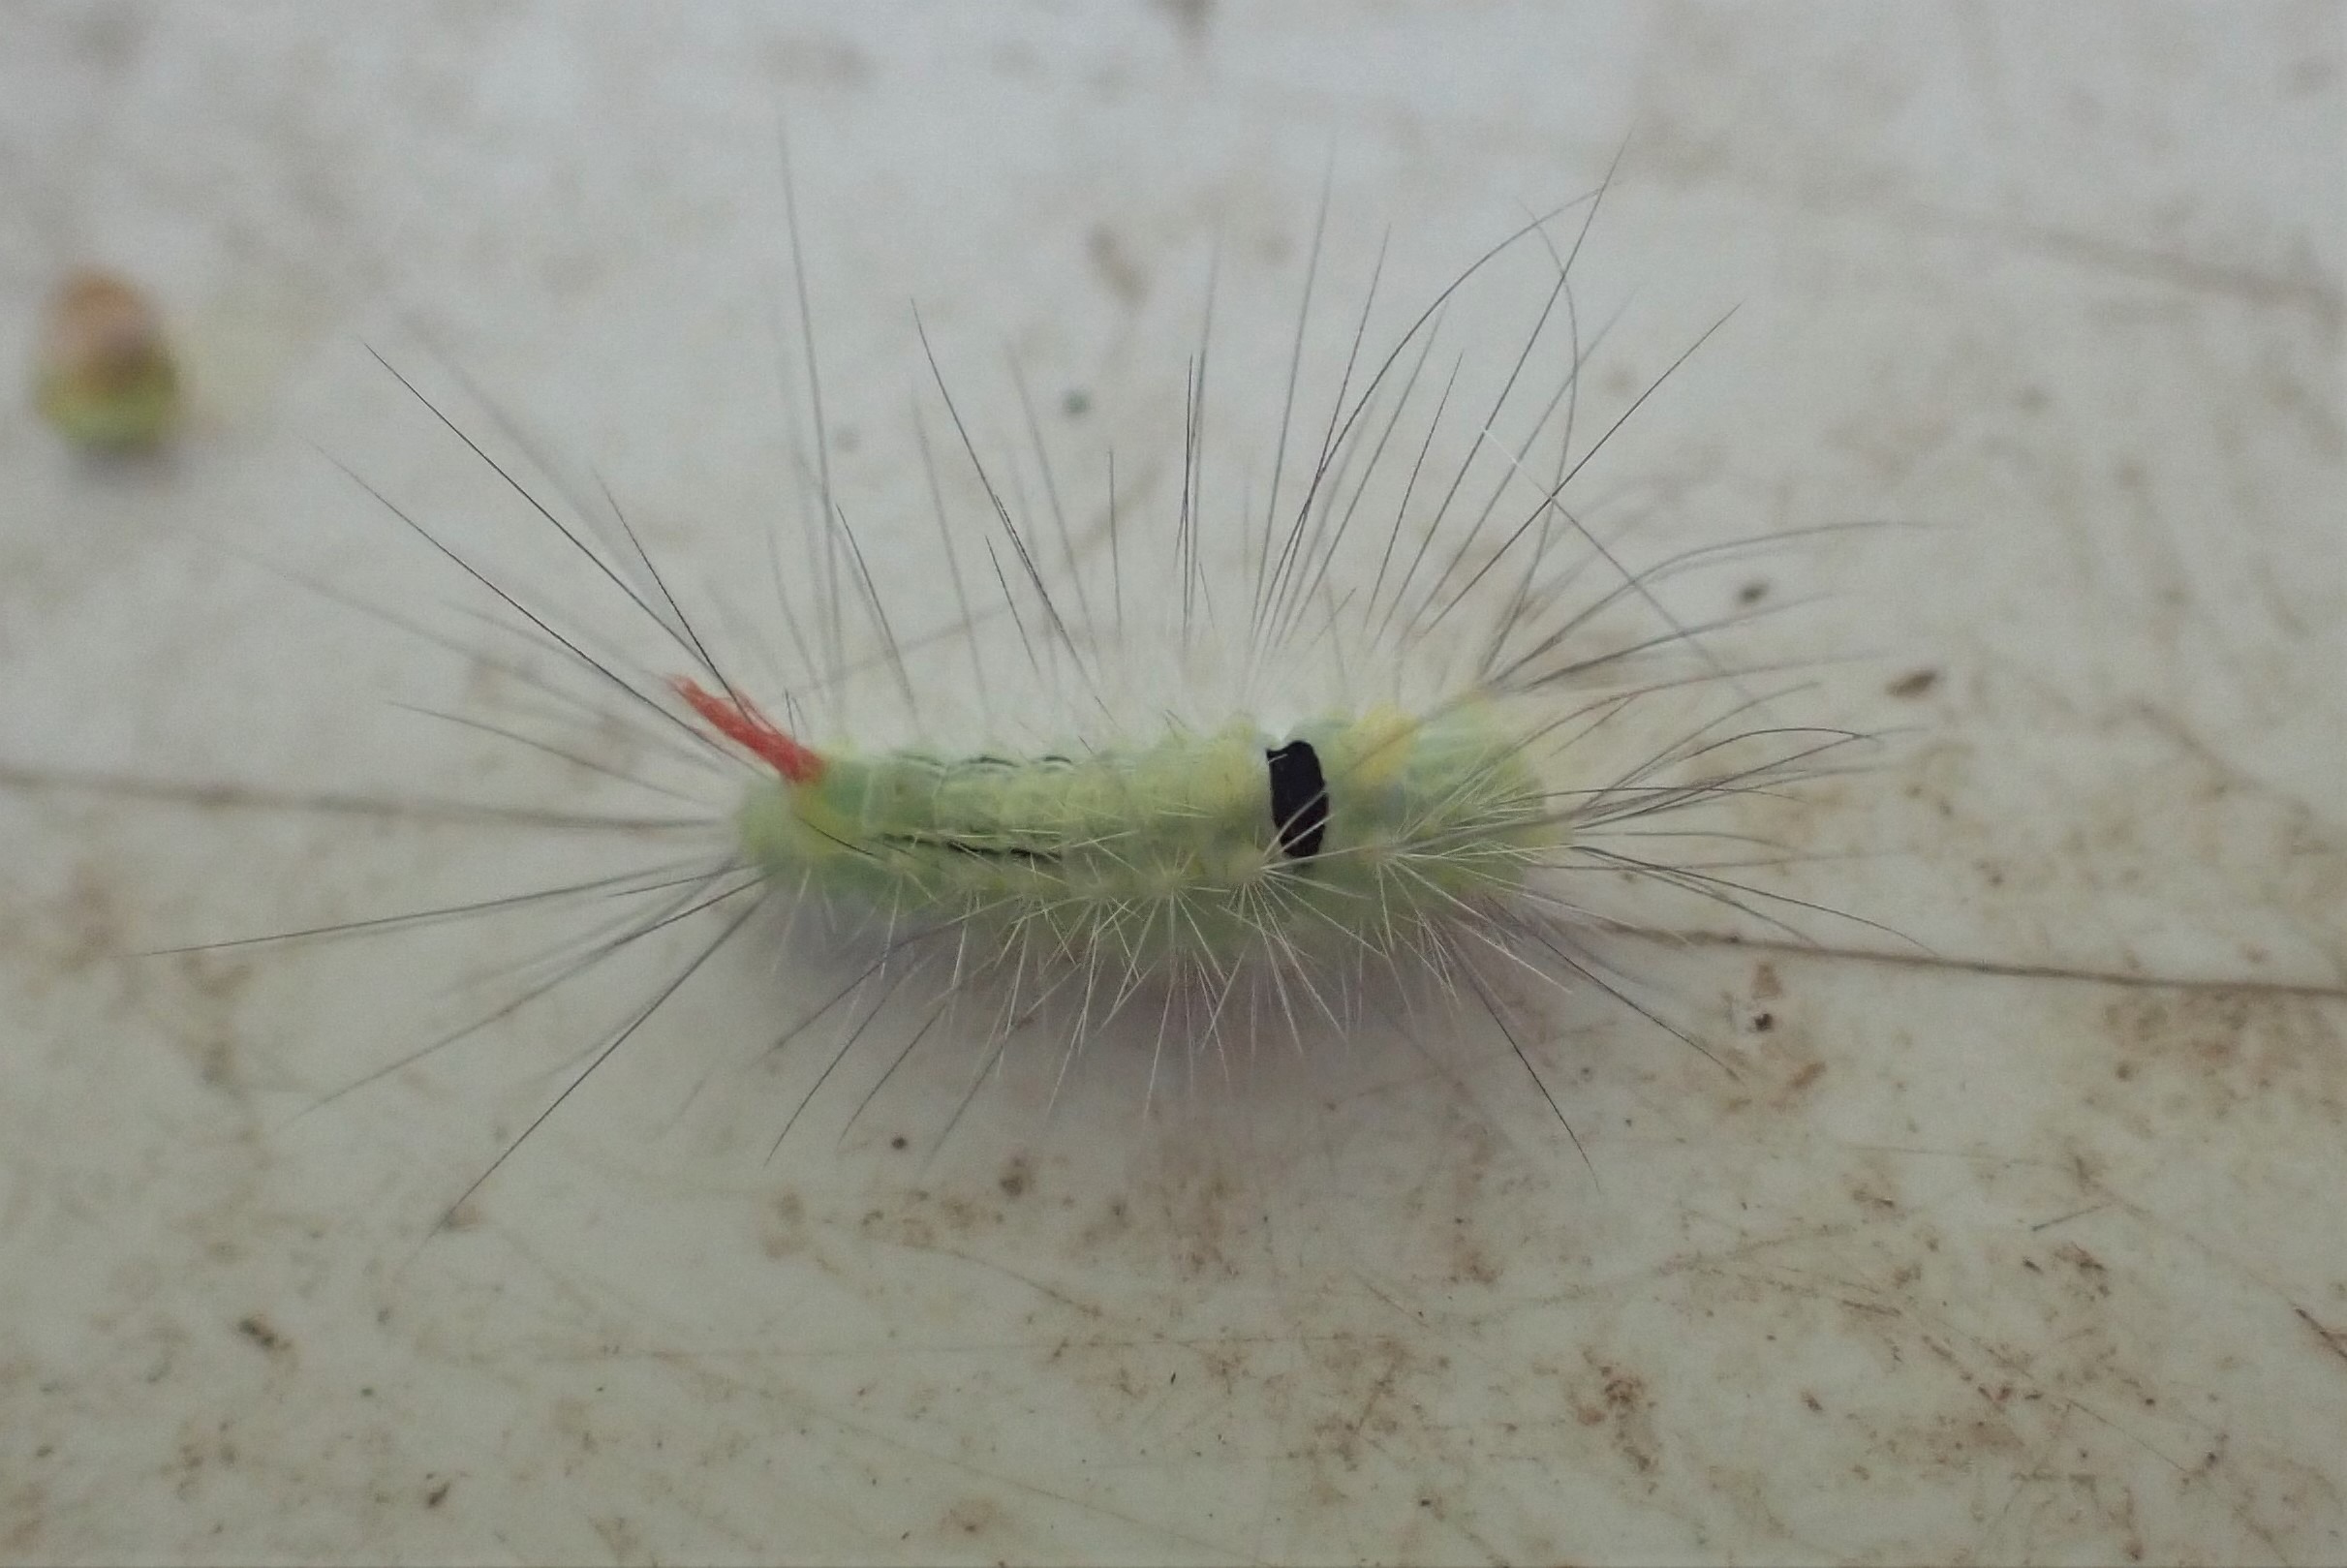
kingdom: Animalia
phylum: Arthropoda
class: Insecta
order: Lepidoptera
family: Erebidae
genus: Calliteara
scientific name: Calliteara pudibunda
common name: Bøgenonne
